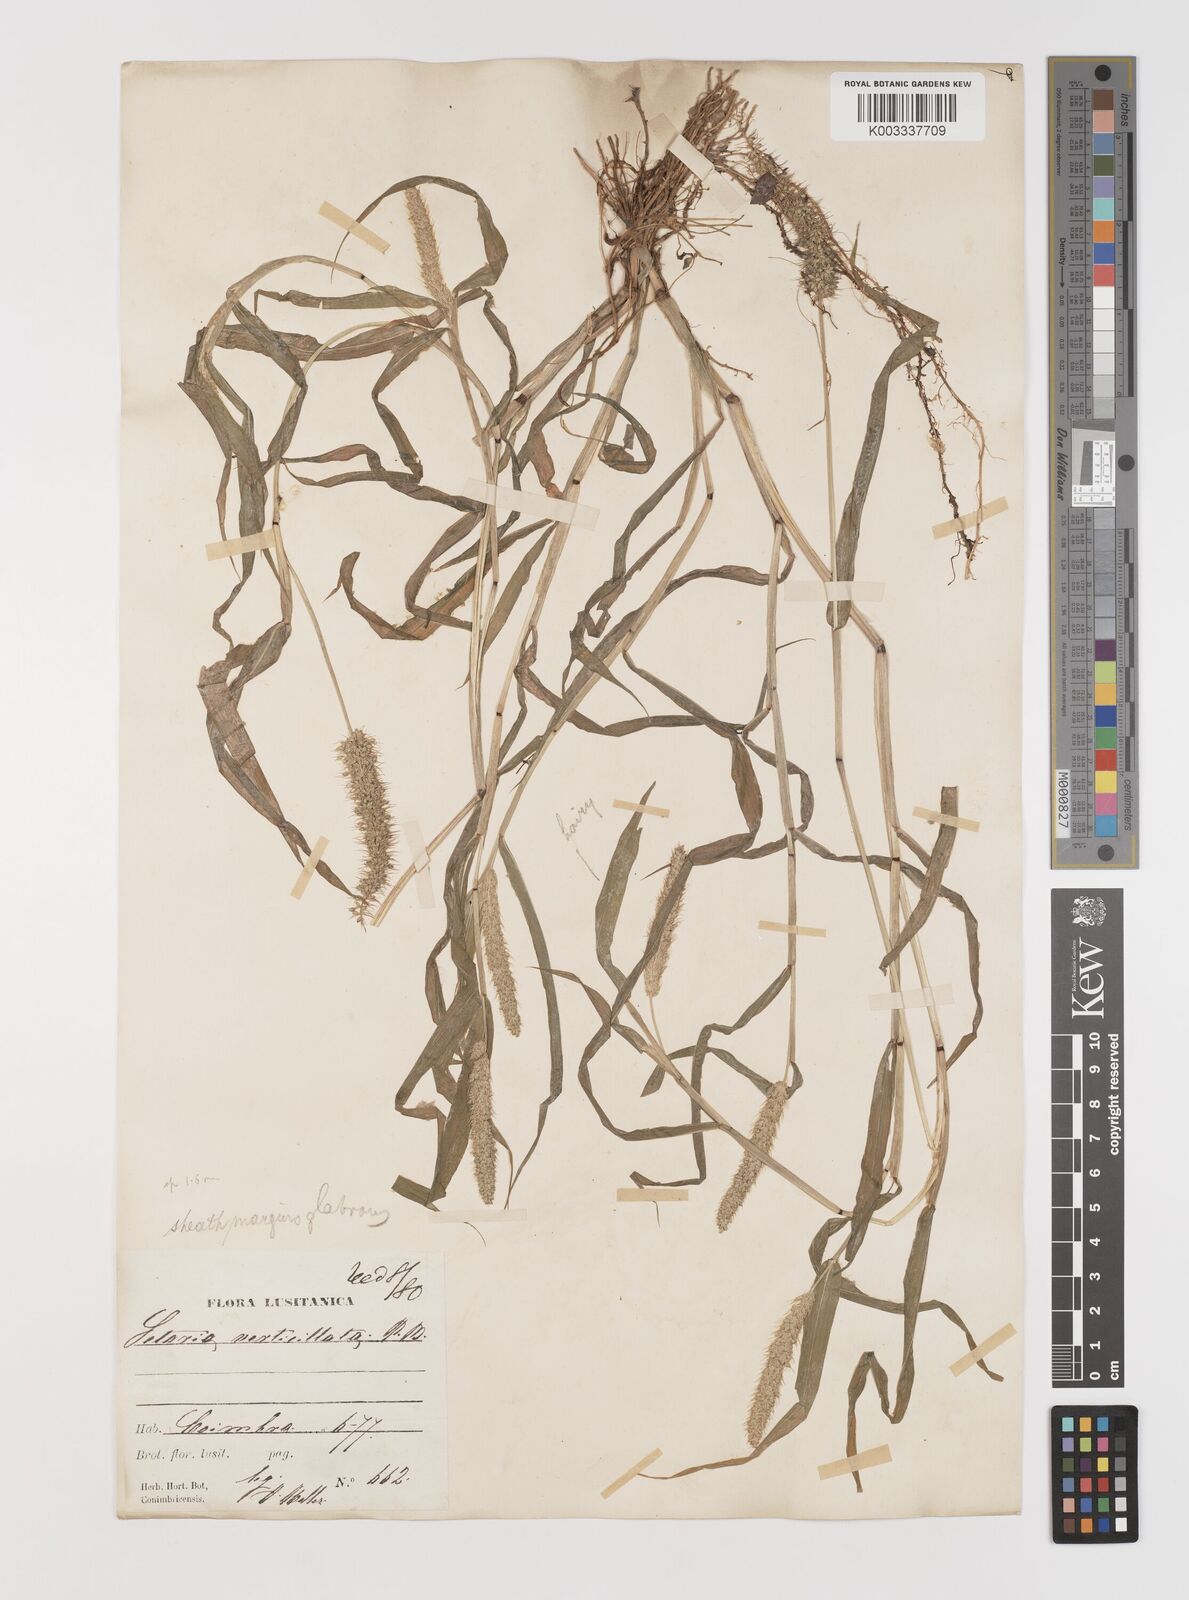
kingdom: Plantae
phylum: Tracheophyta
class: Liliopsida
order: Poales
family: Poaceae
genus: Setaria
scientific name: Setaria verticillata
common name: Hooked bristlegrass
